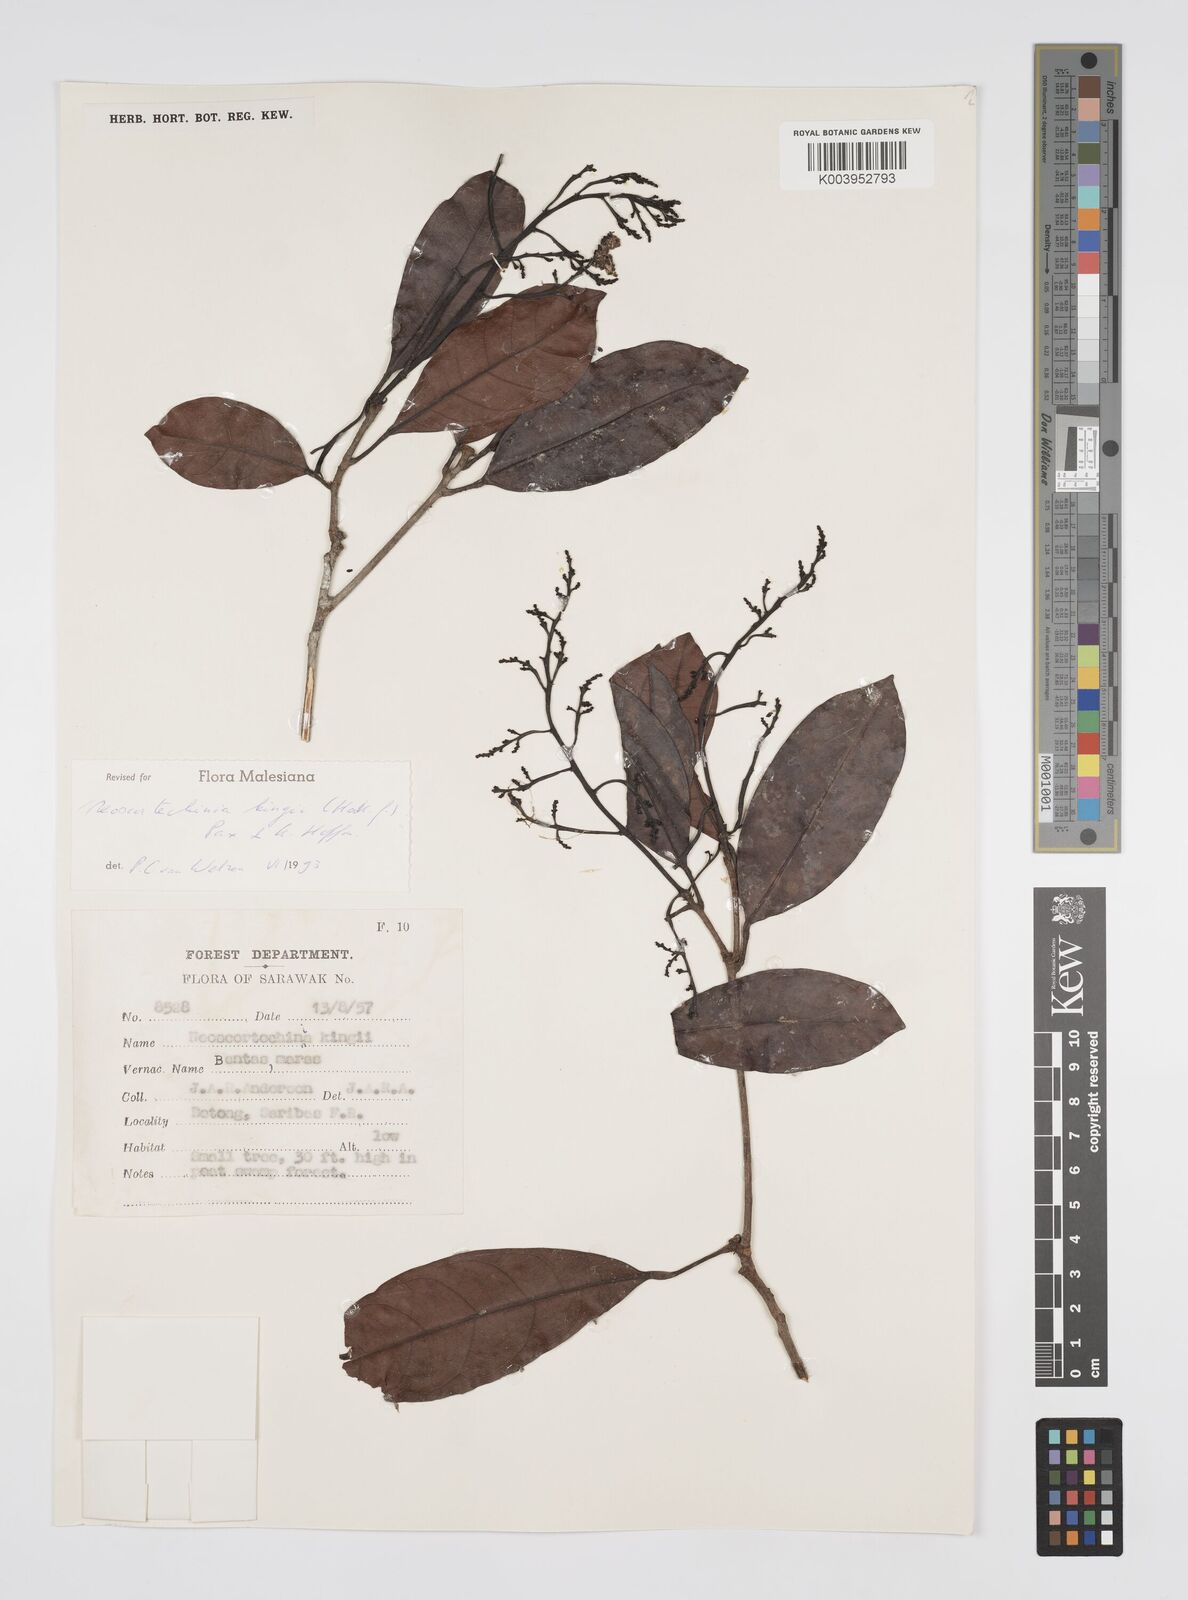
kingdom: Plantae
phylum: Tracheophyta
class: Magnoliopsida
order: Malpighiales
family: Euphorbiaceae
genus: Neoscortechinia
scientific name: Neoscortechinia kingii
